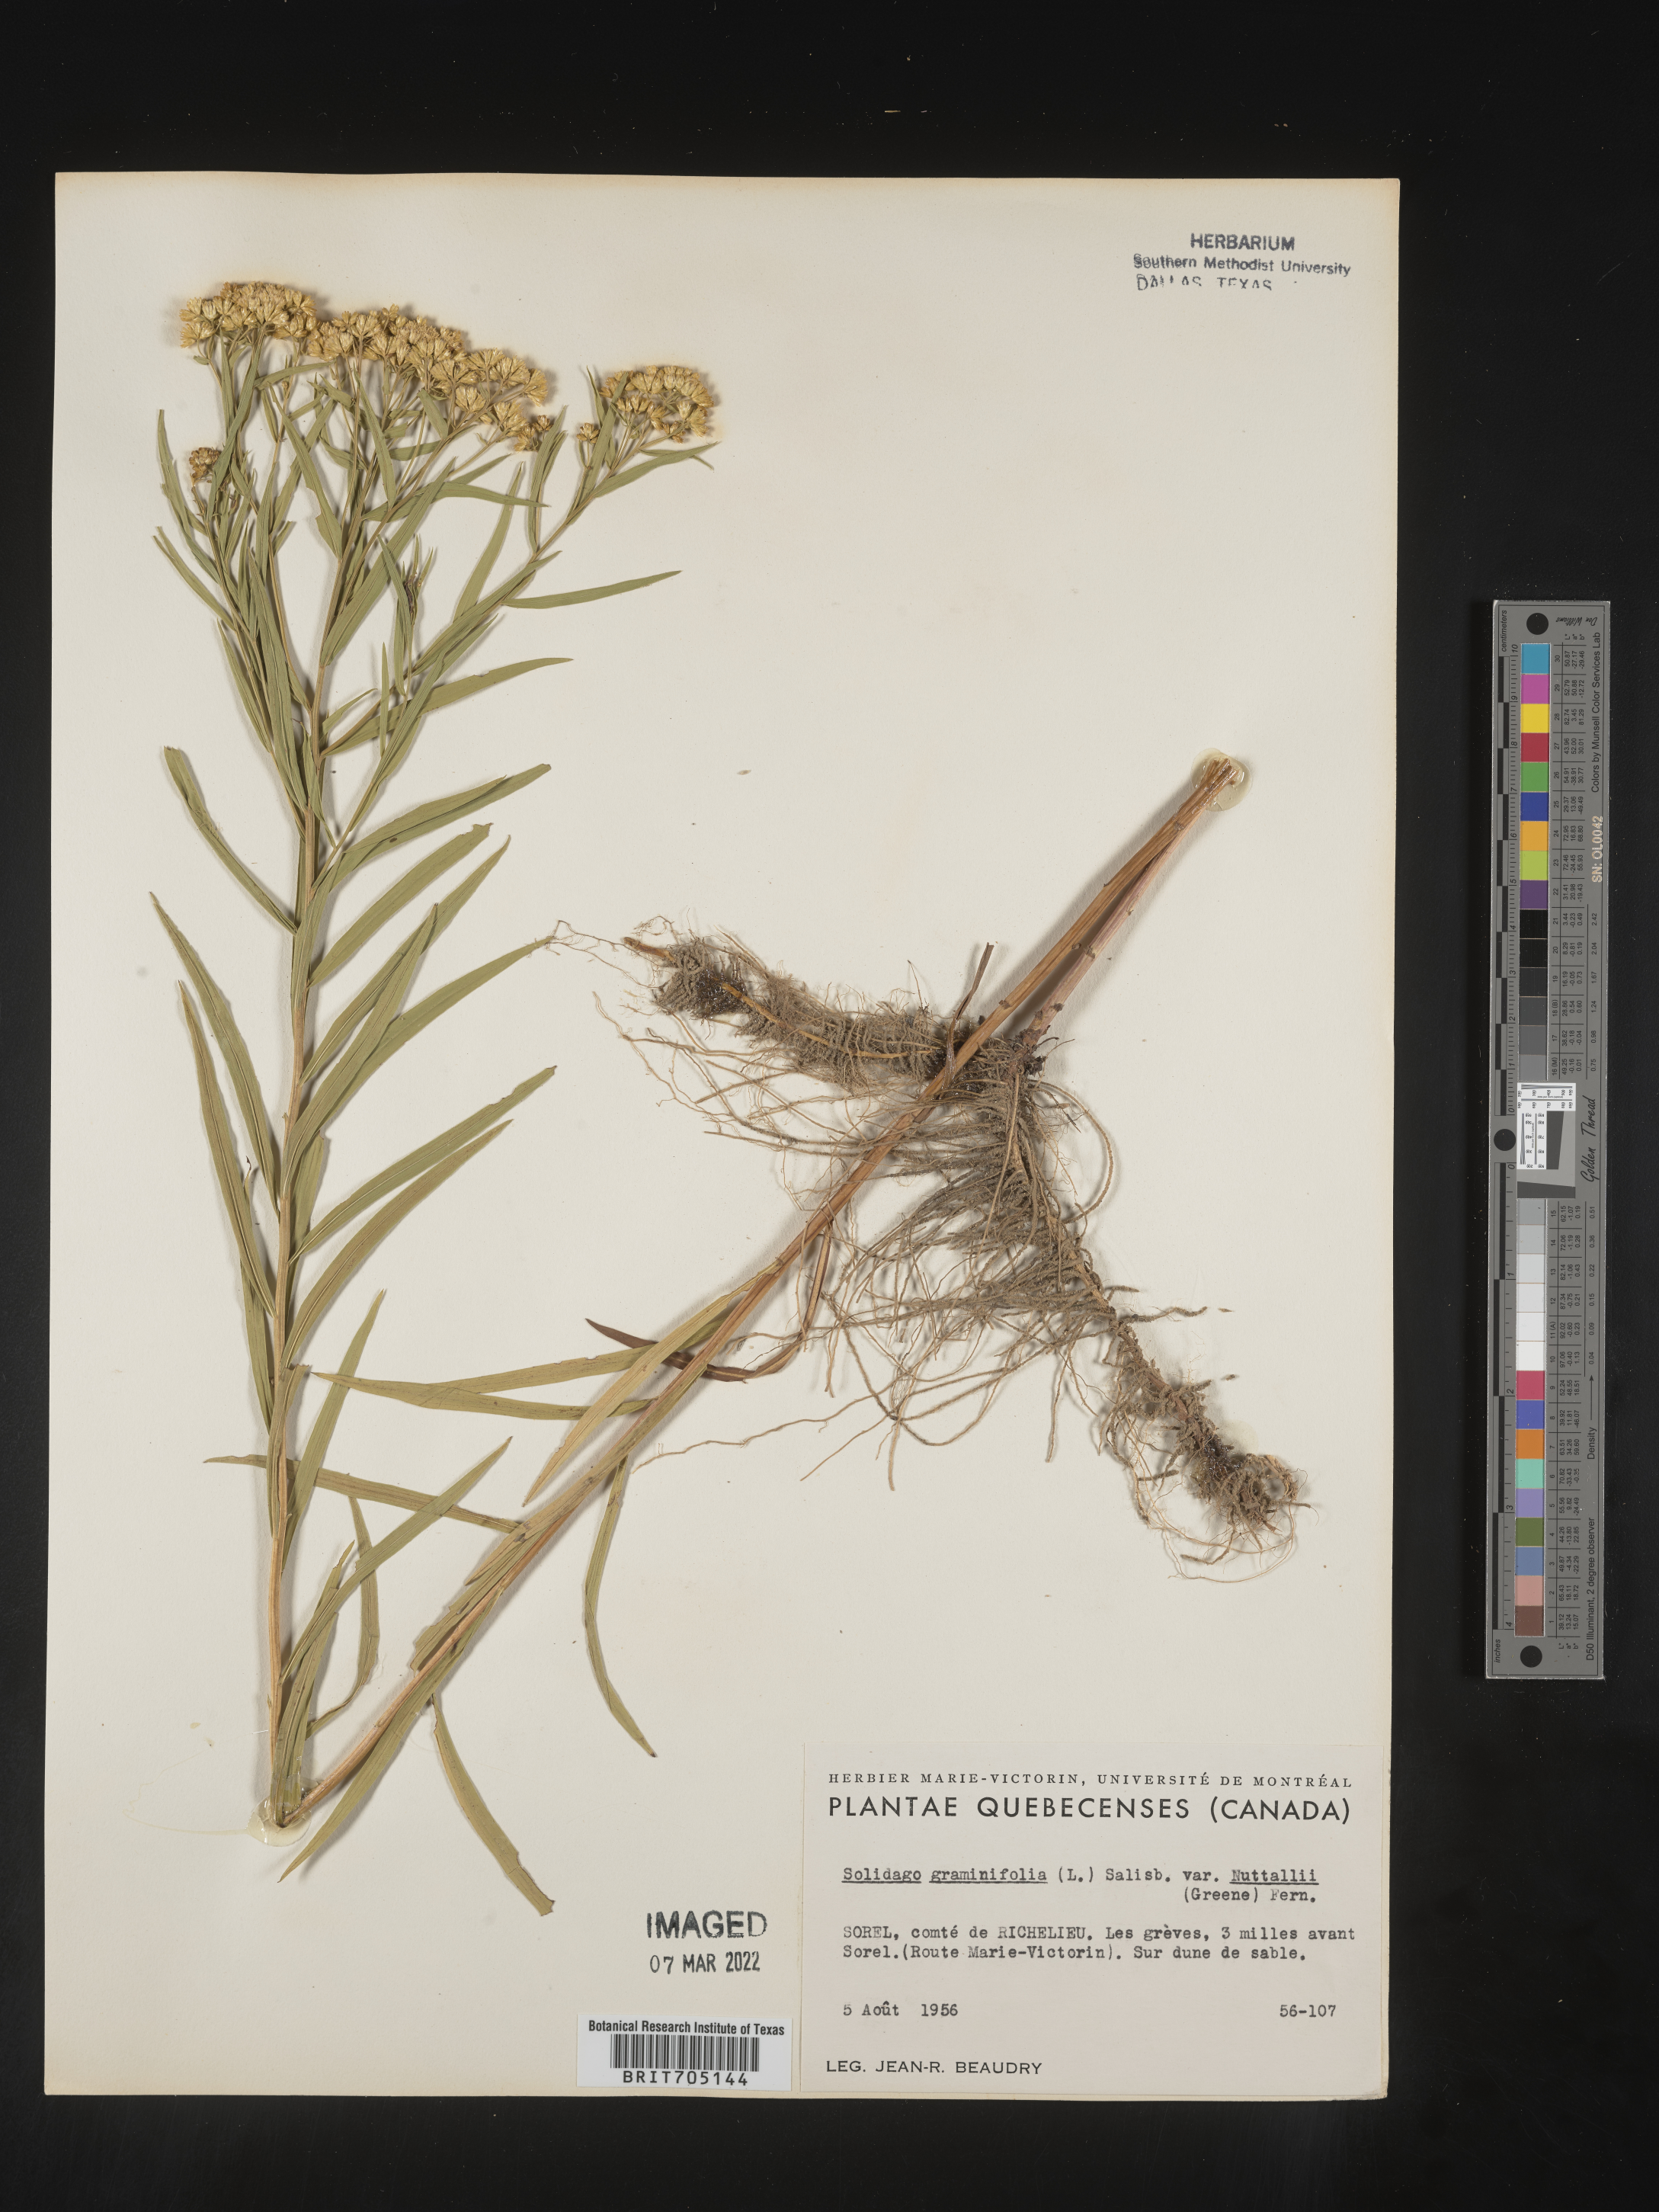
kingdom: Plantae
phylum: Tracheophyta
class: Magnoliopsida
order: Asterales
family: Asteraceae
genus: Euthamia
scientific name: Euthamia graminifolia
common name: Common goldentop
